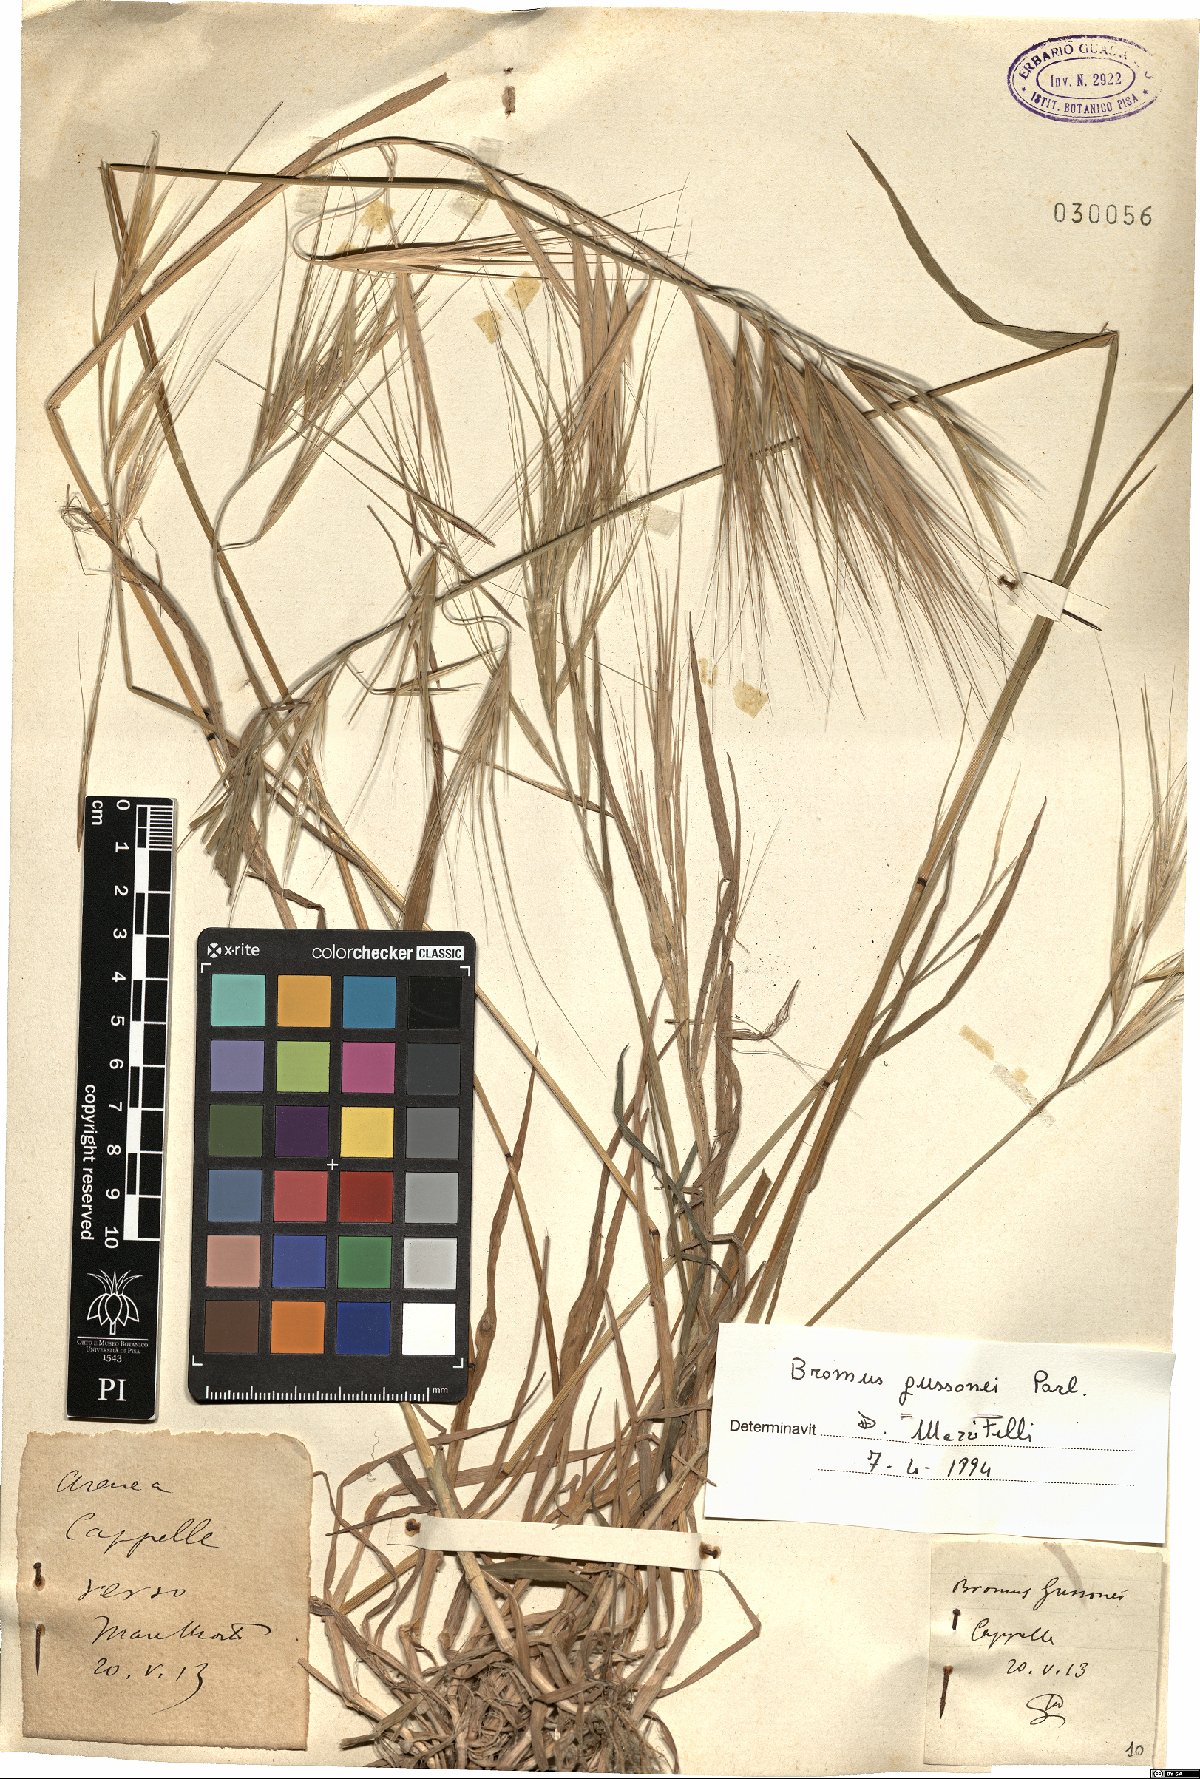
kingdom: Plantae
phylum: Tracheophyta
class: Liliopsida
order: Poales
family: Poaceae
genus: Bromus
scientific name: Bromus diandrus
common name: Ripgut brome
